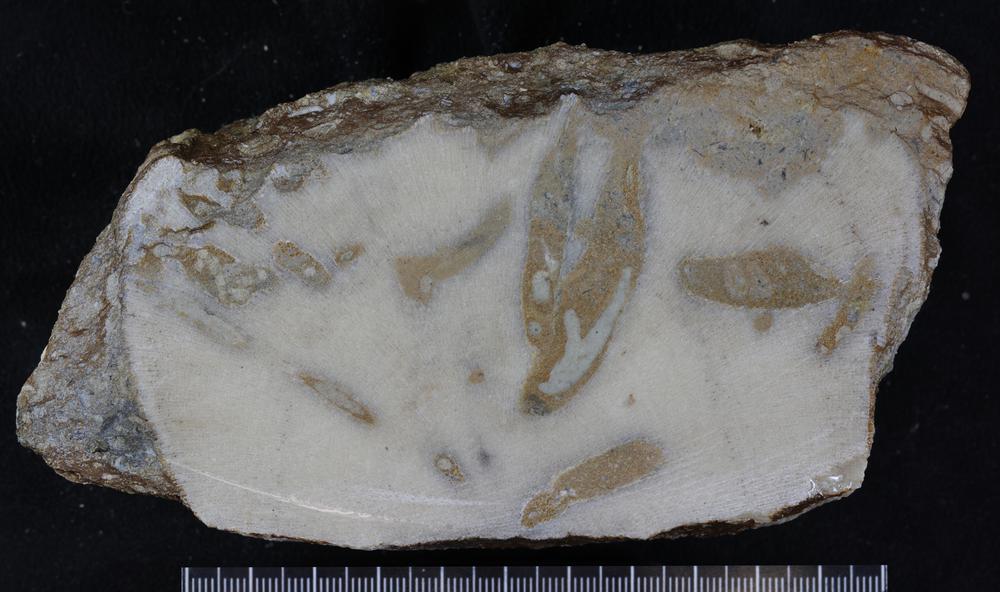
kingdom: Animalia
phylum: Bryozoa
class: Stenolaemata
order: Trepostomatida
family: Diplotrypidae
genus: Diplotrypa
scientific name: Diplotrypa petropolitana
